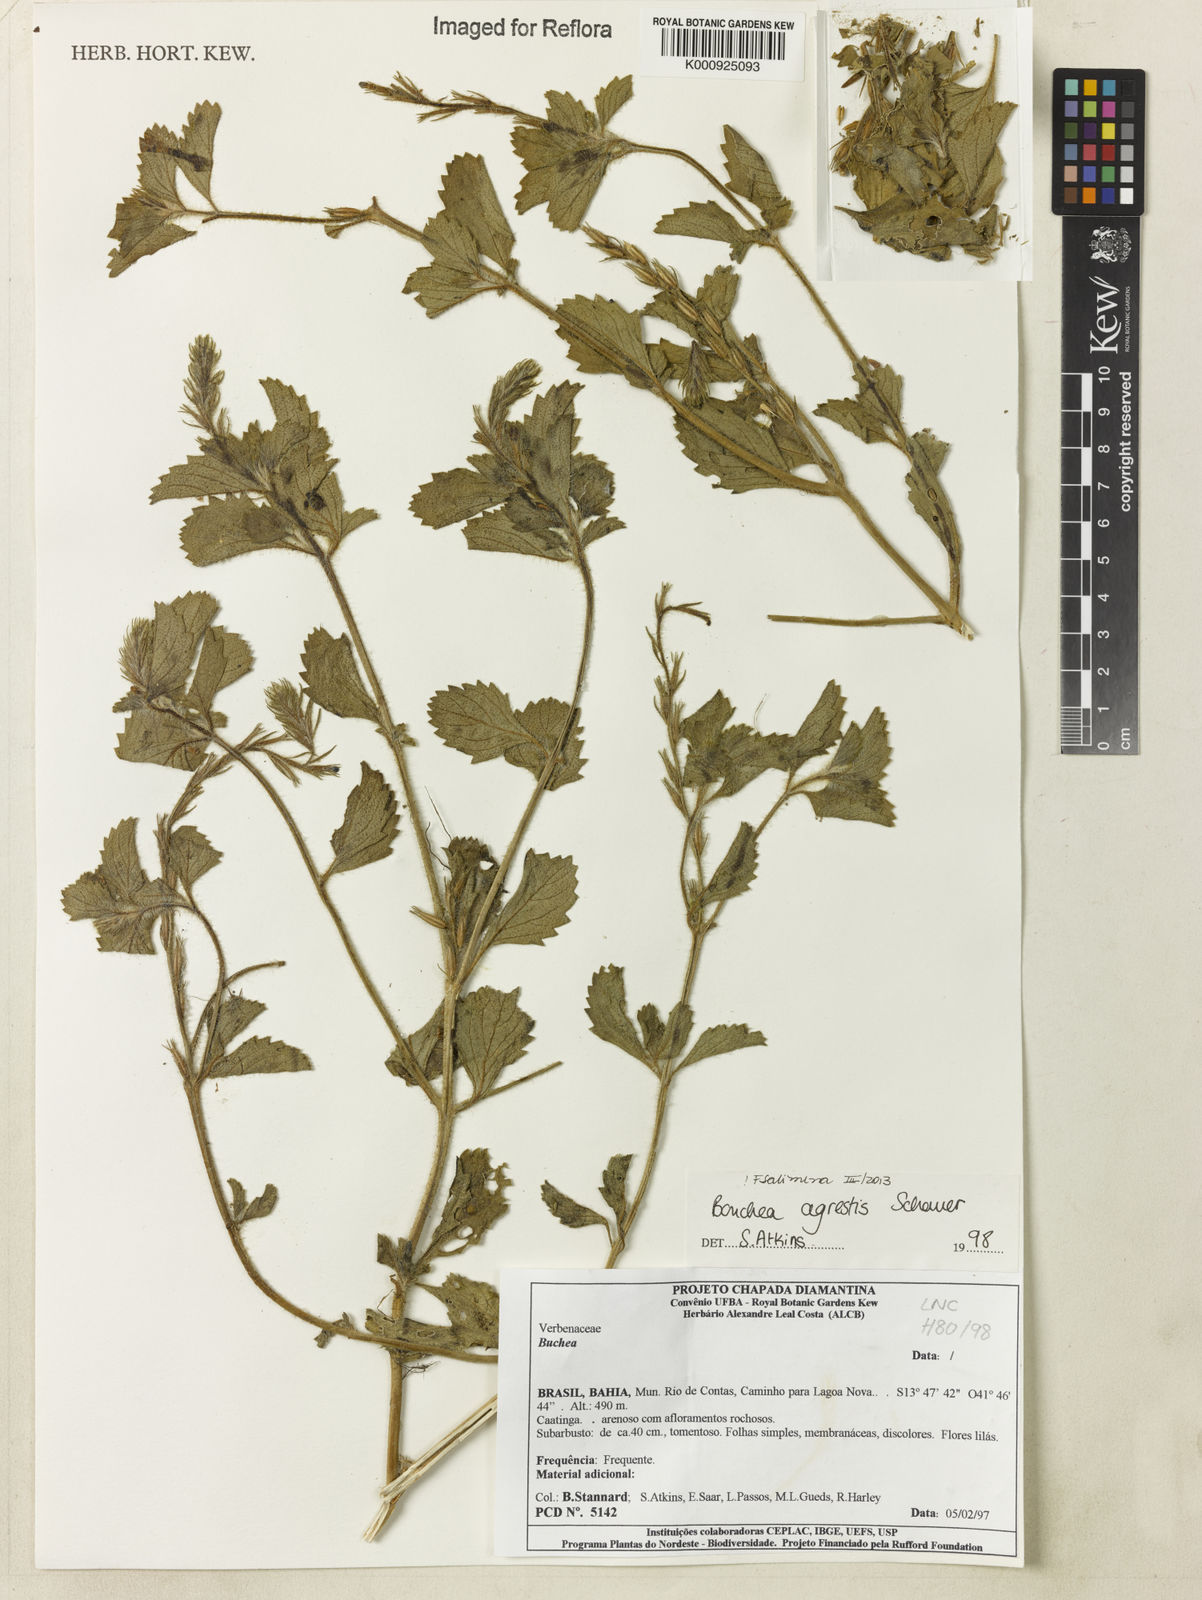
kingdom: Plantae
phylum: Tracheophyta
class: Magnoliopsida
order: Lamiales
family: Verbenaceae
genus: Bouchea
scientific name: Bouchea agrestis
